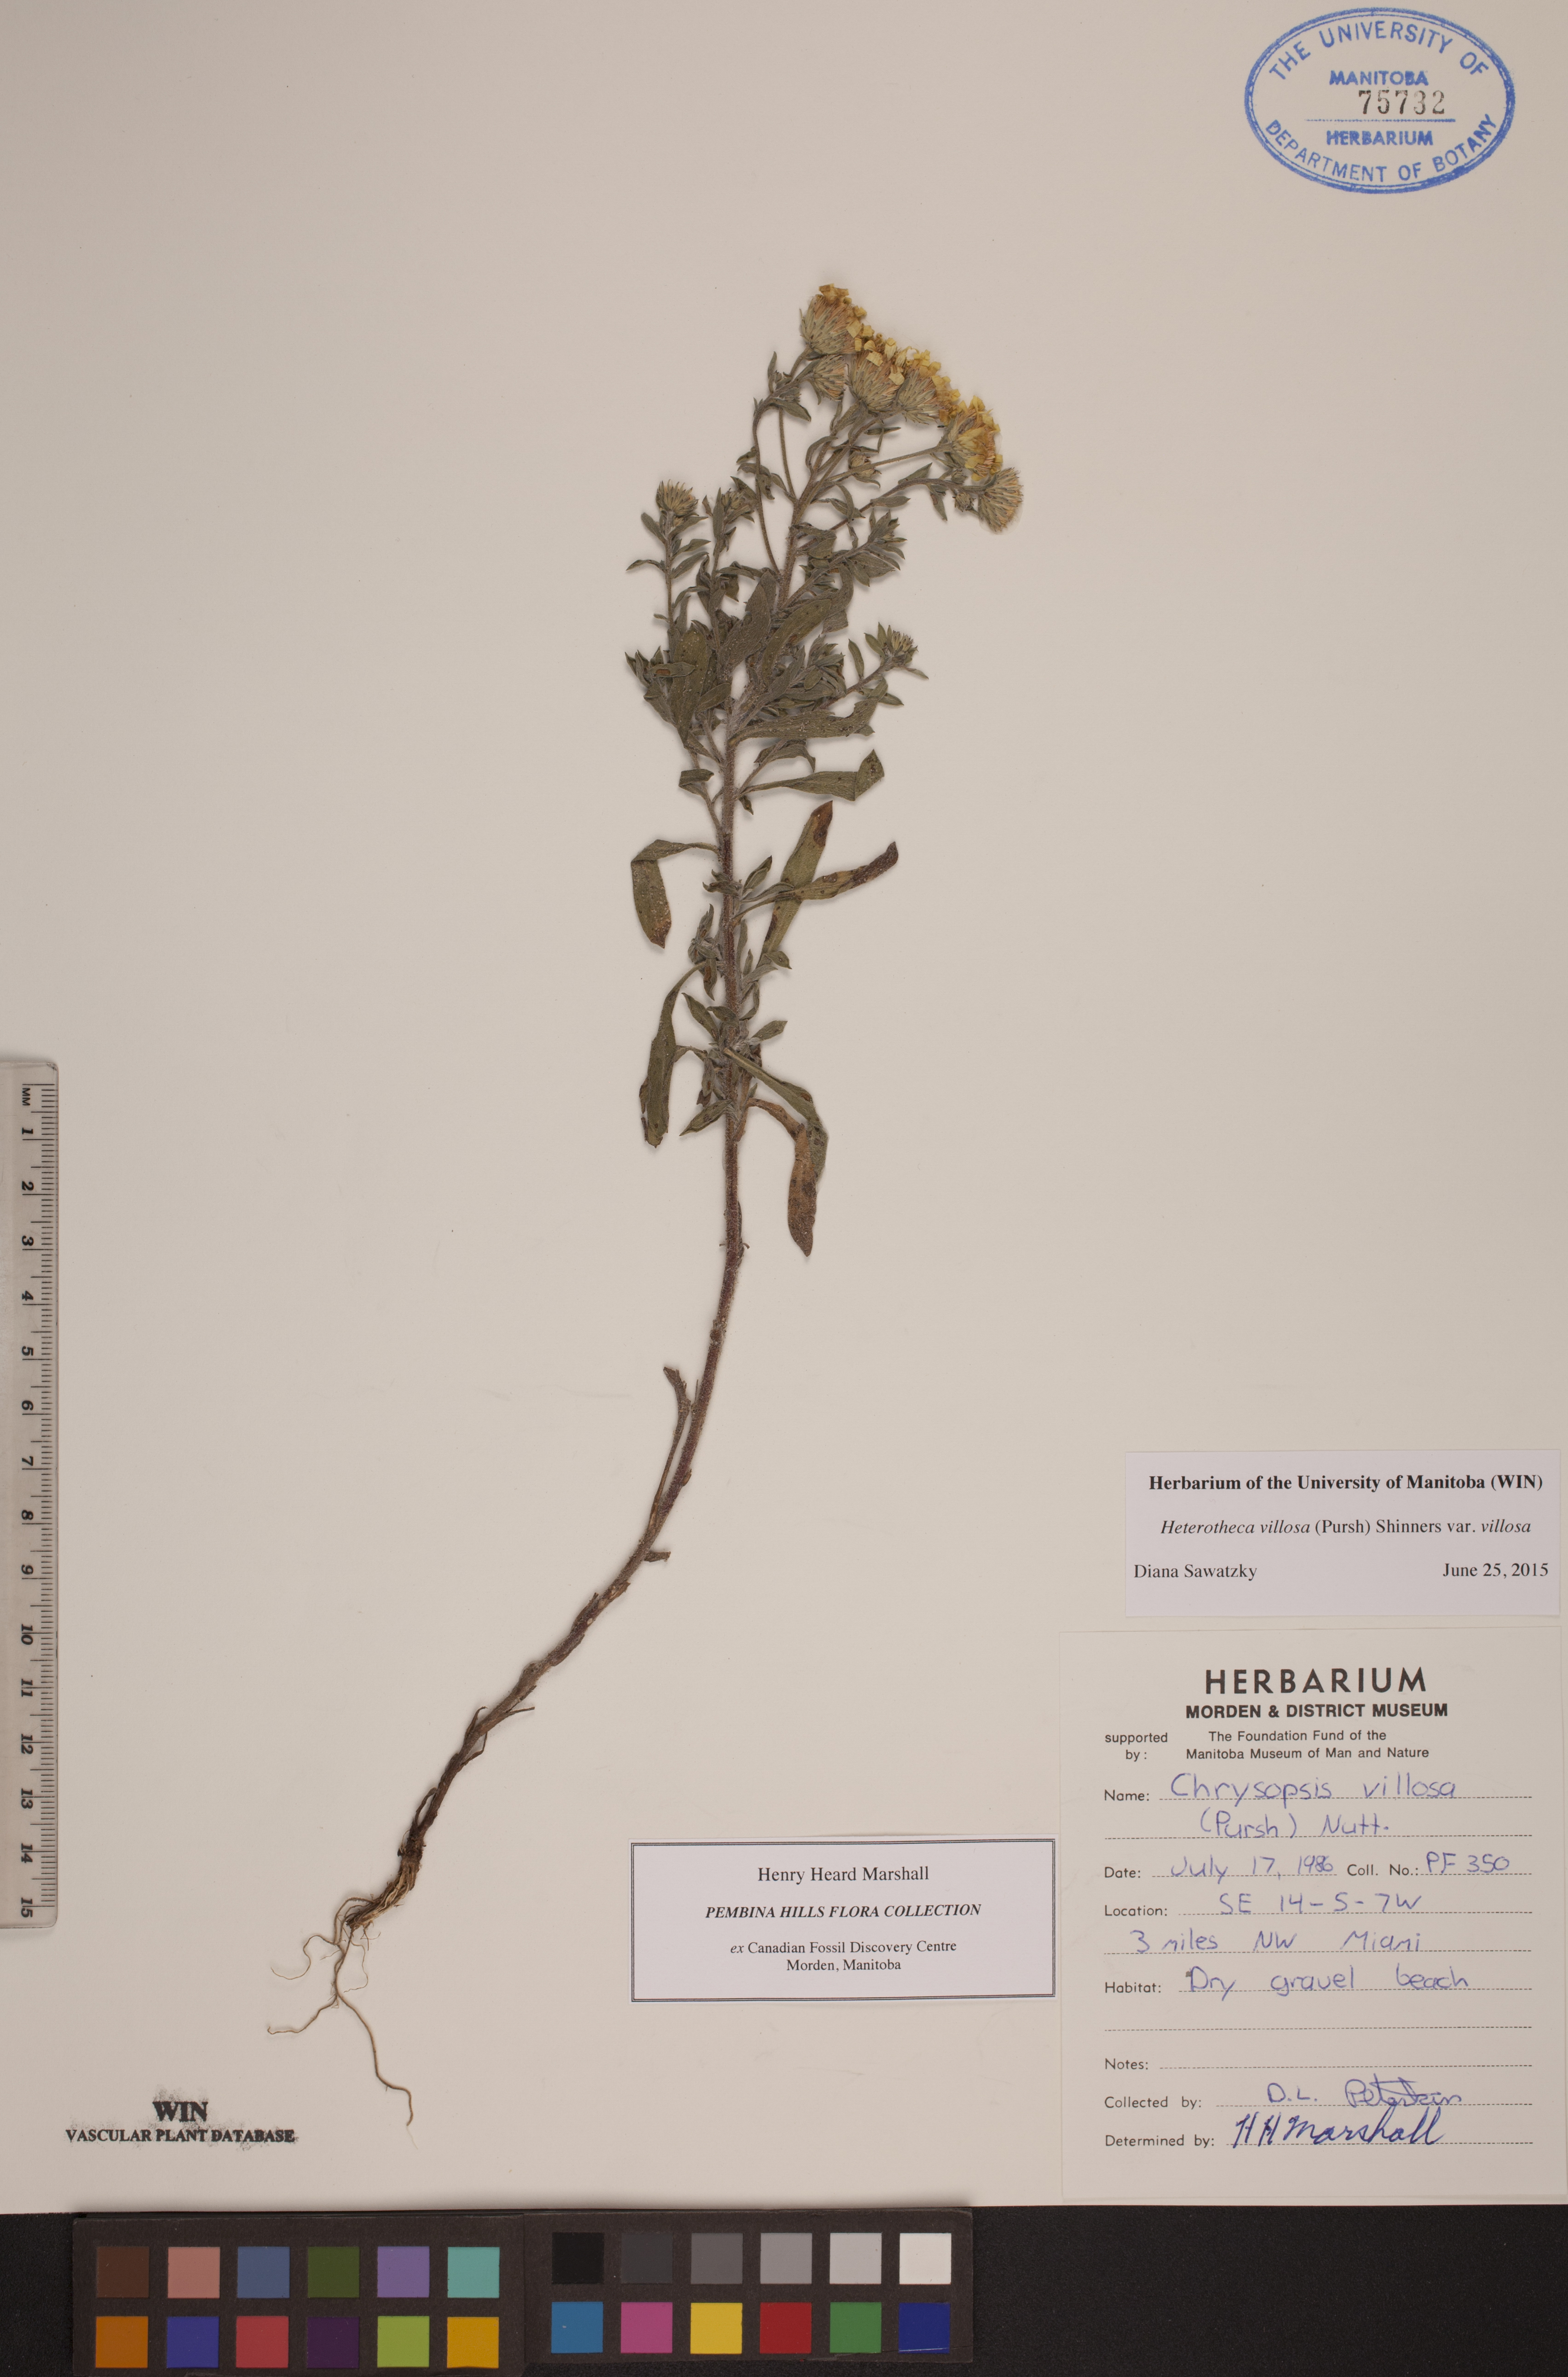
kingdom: Plantae
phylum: Tracheophyta
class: Magnoliopsida
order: Asterales
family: Asteraceae
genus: Heterotheca
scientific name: Heterotheca villosa
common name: Hairy false goldenaster
